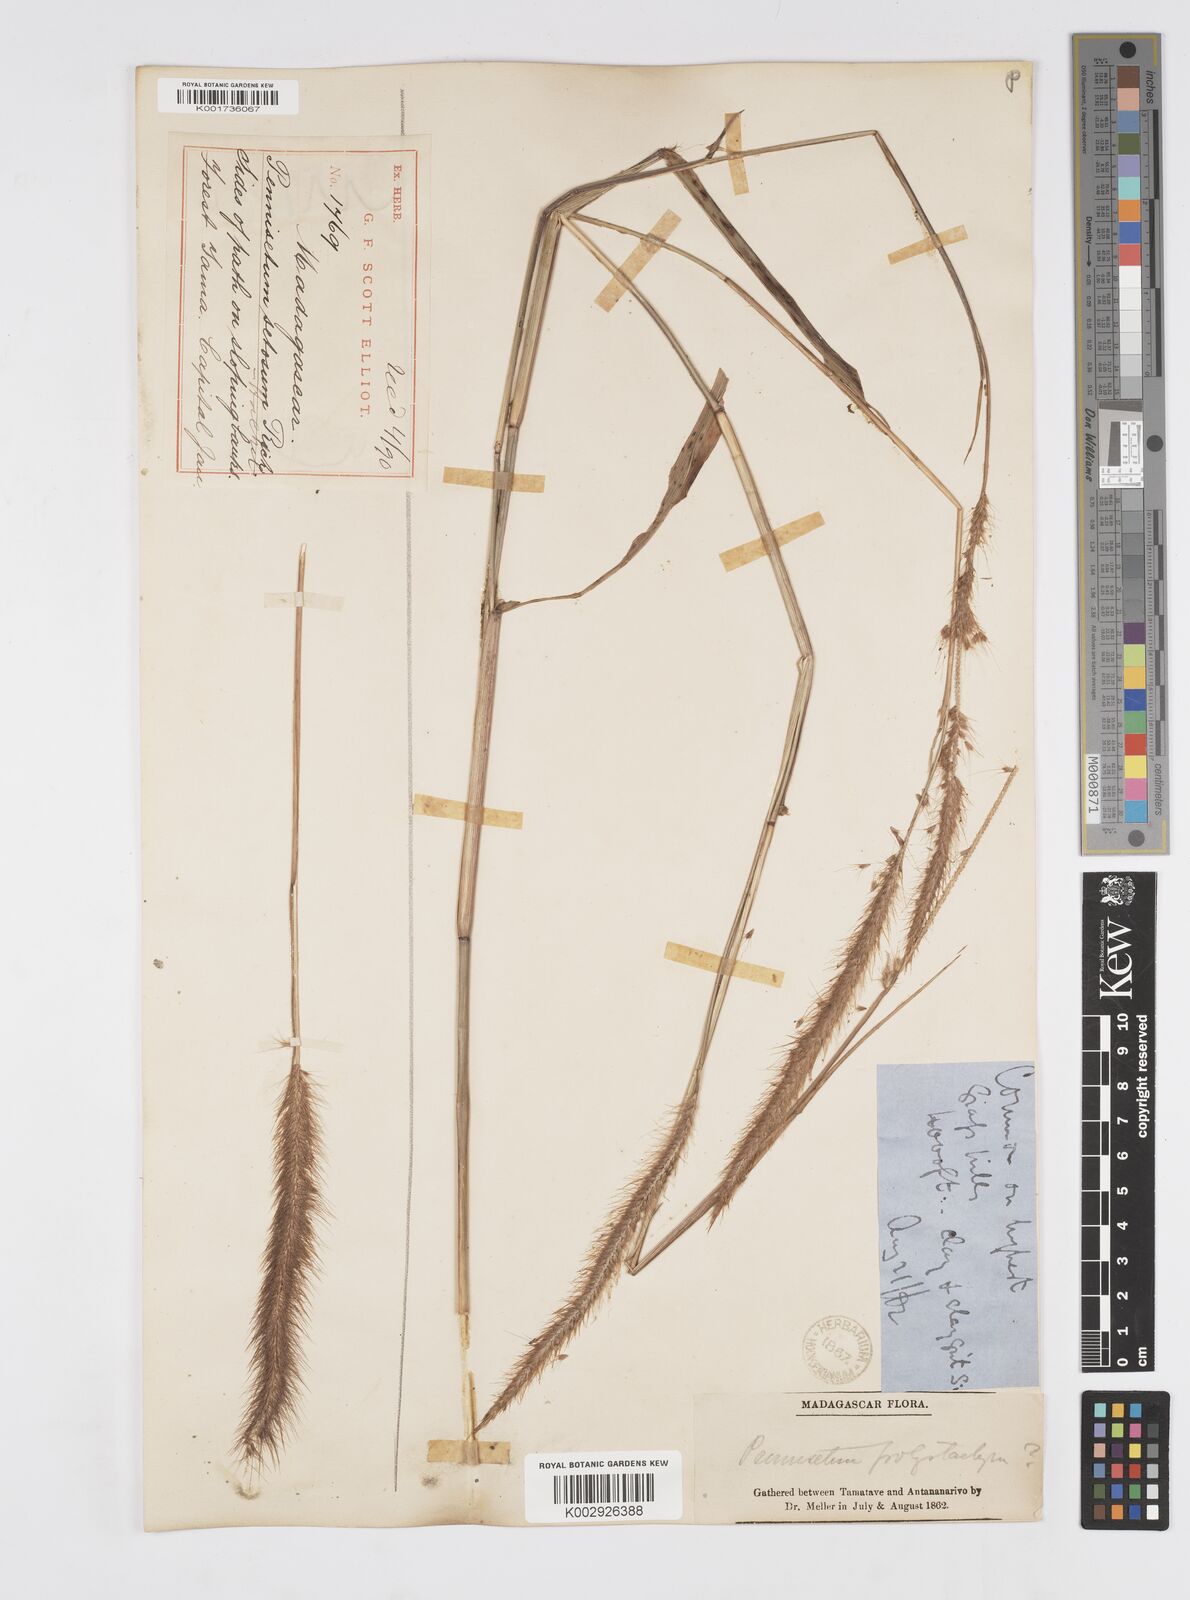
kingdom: Plantae
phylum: Tracheophyta
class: Liliopsida
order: Poales
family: Poaceae
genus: Setaria
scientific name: Setaria parviflora
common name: Knotroot bristle-grass
